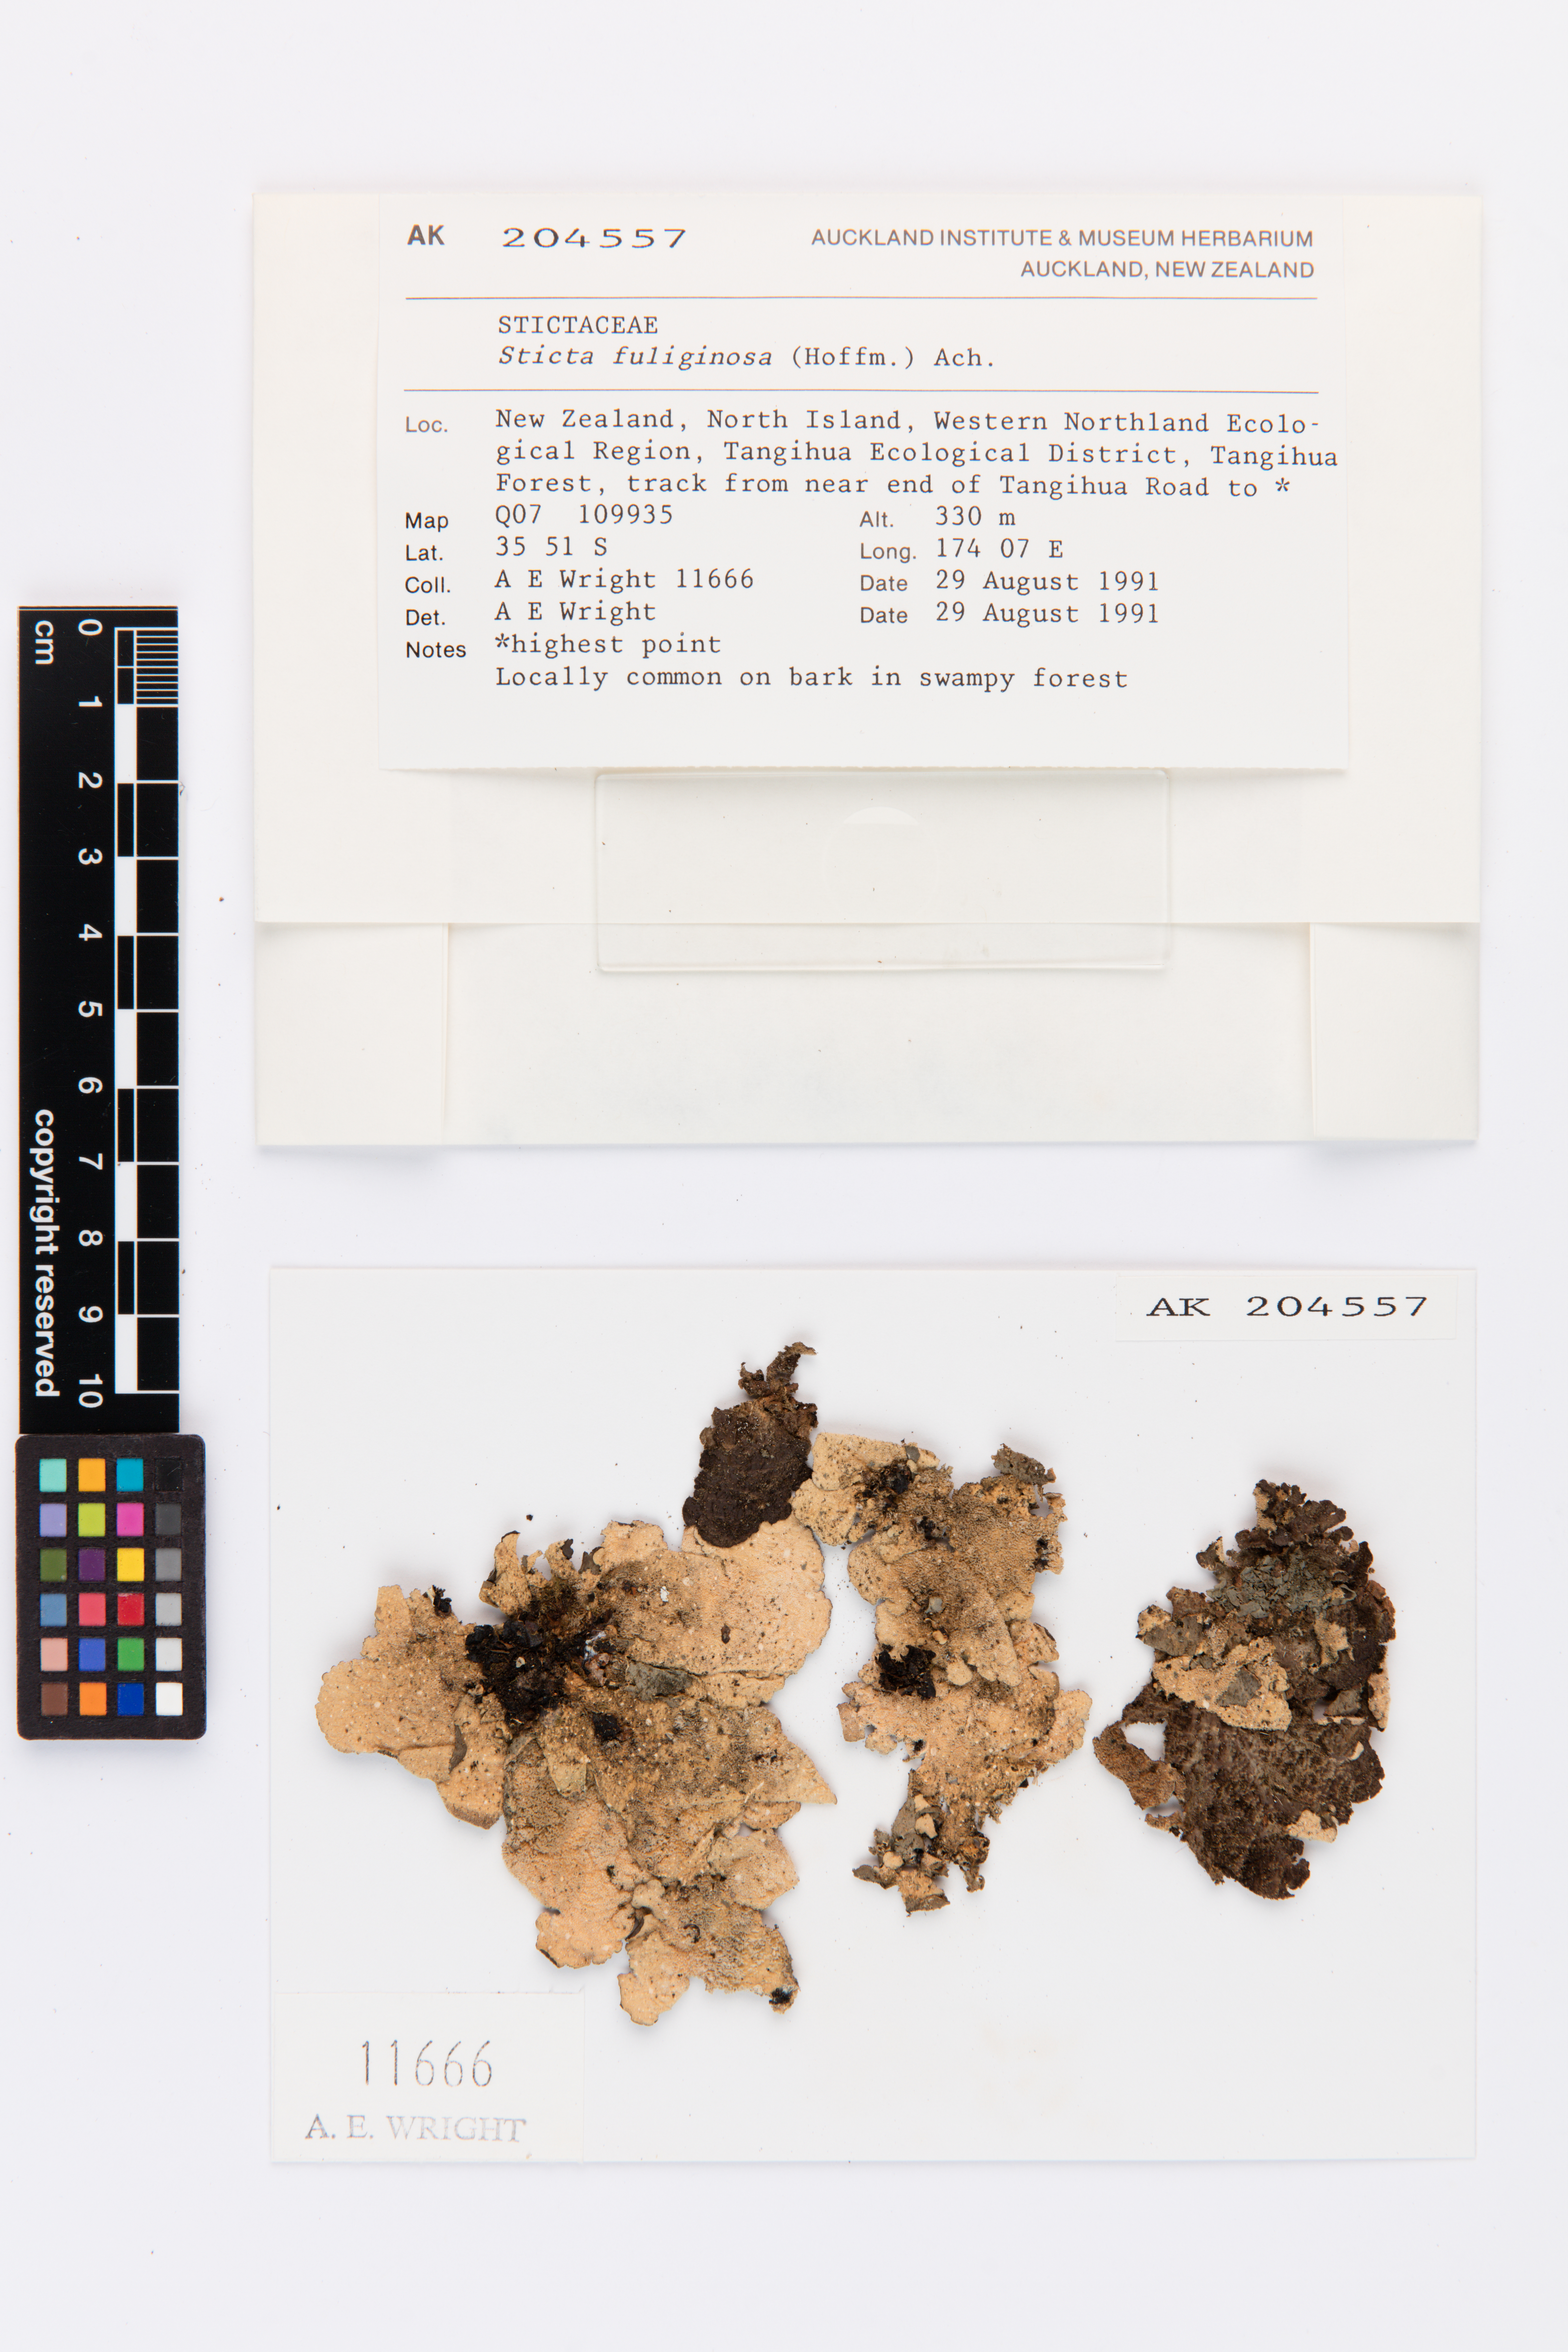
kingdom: Fungi
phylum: Ascomycota
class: Lecanoromycetes
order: Peltigerales
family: Lobariaceae
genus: Sticta
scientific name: Sticta fuliginosa
